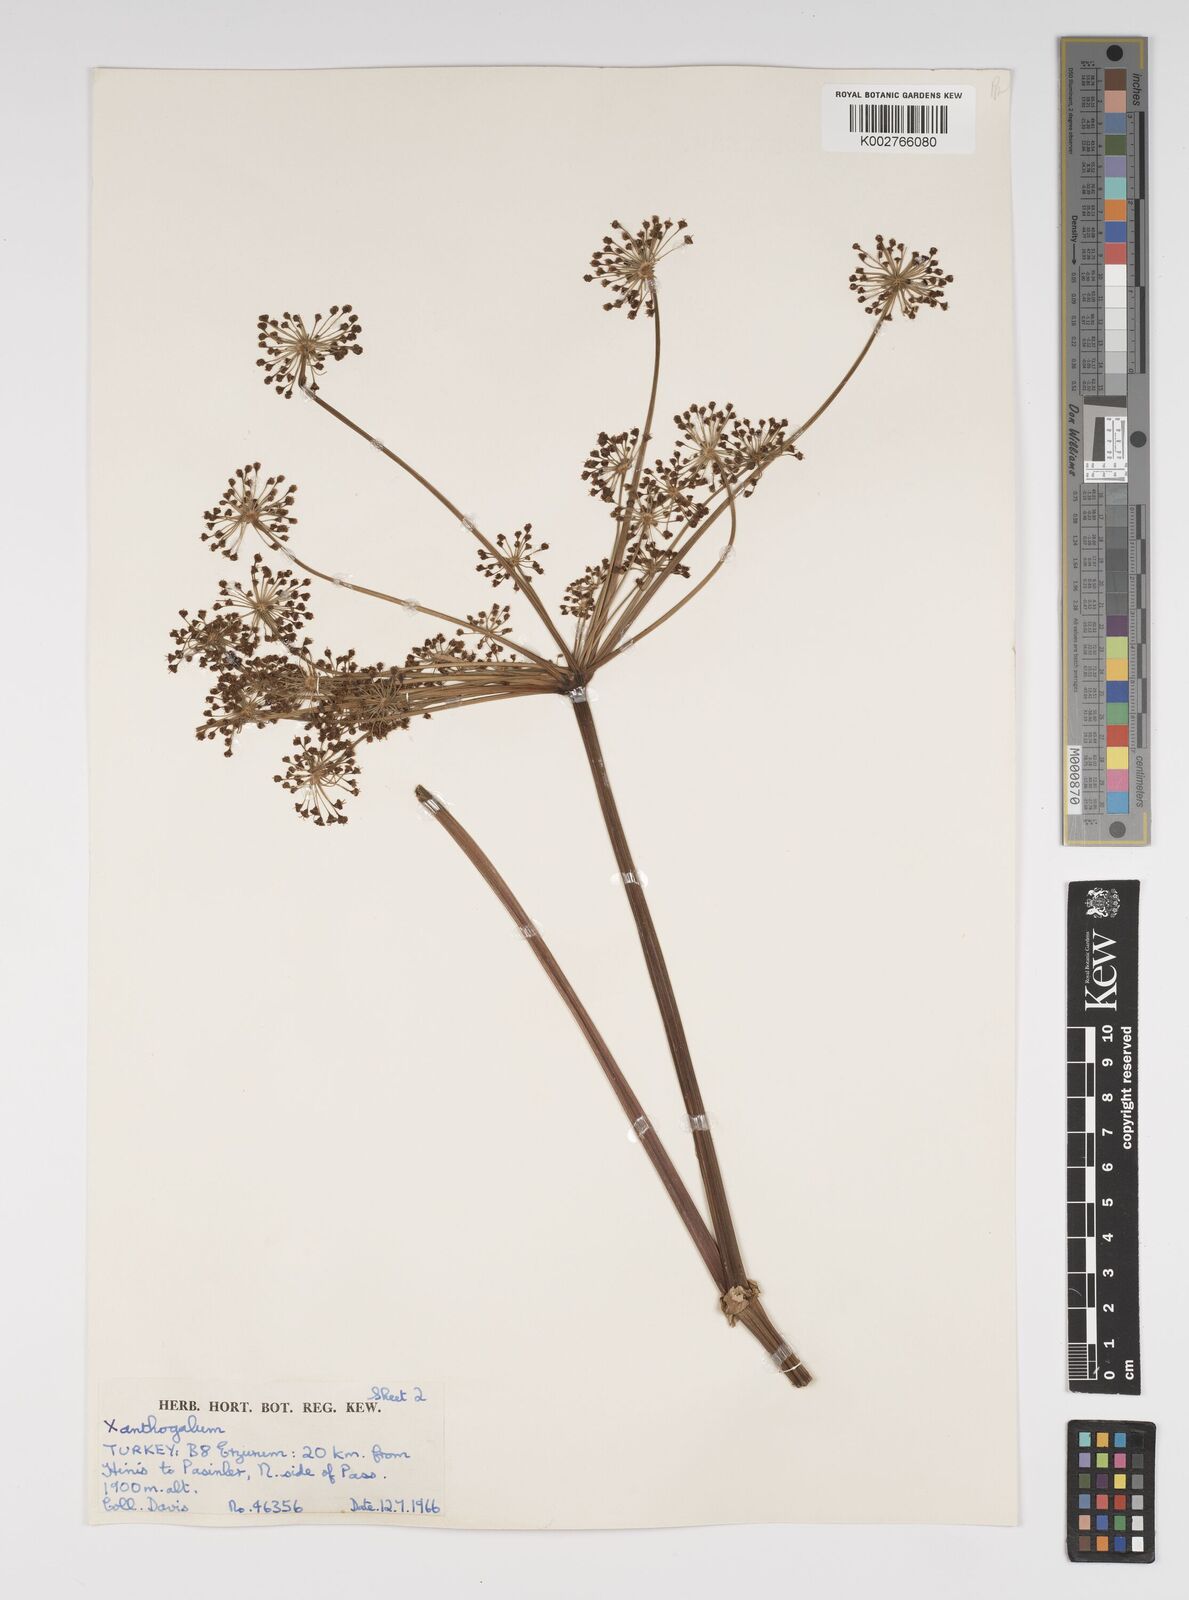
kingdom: Plantae
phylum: Tracheophyta
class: Magnoliopsida
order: Apiales
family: Apiaceae
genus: Xanthogalum
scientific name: Xanthogalum purpurascens
